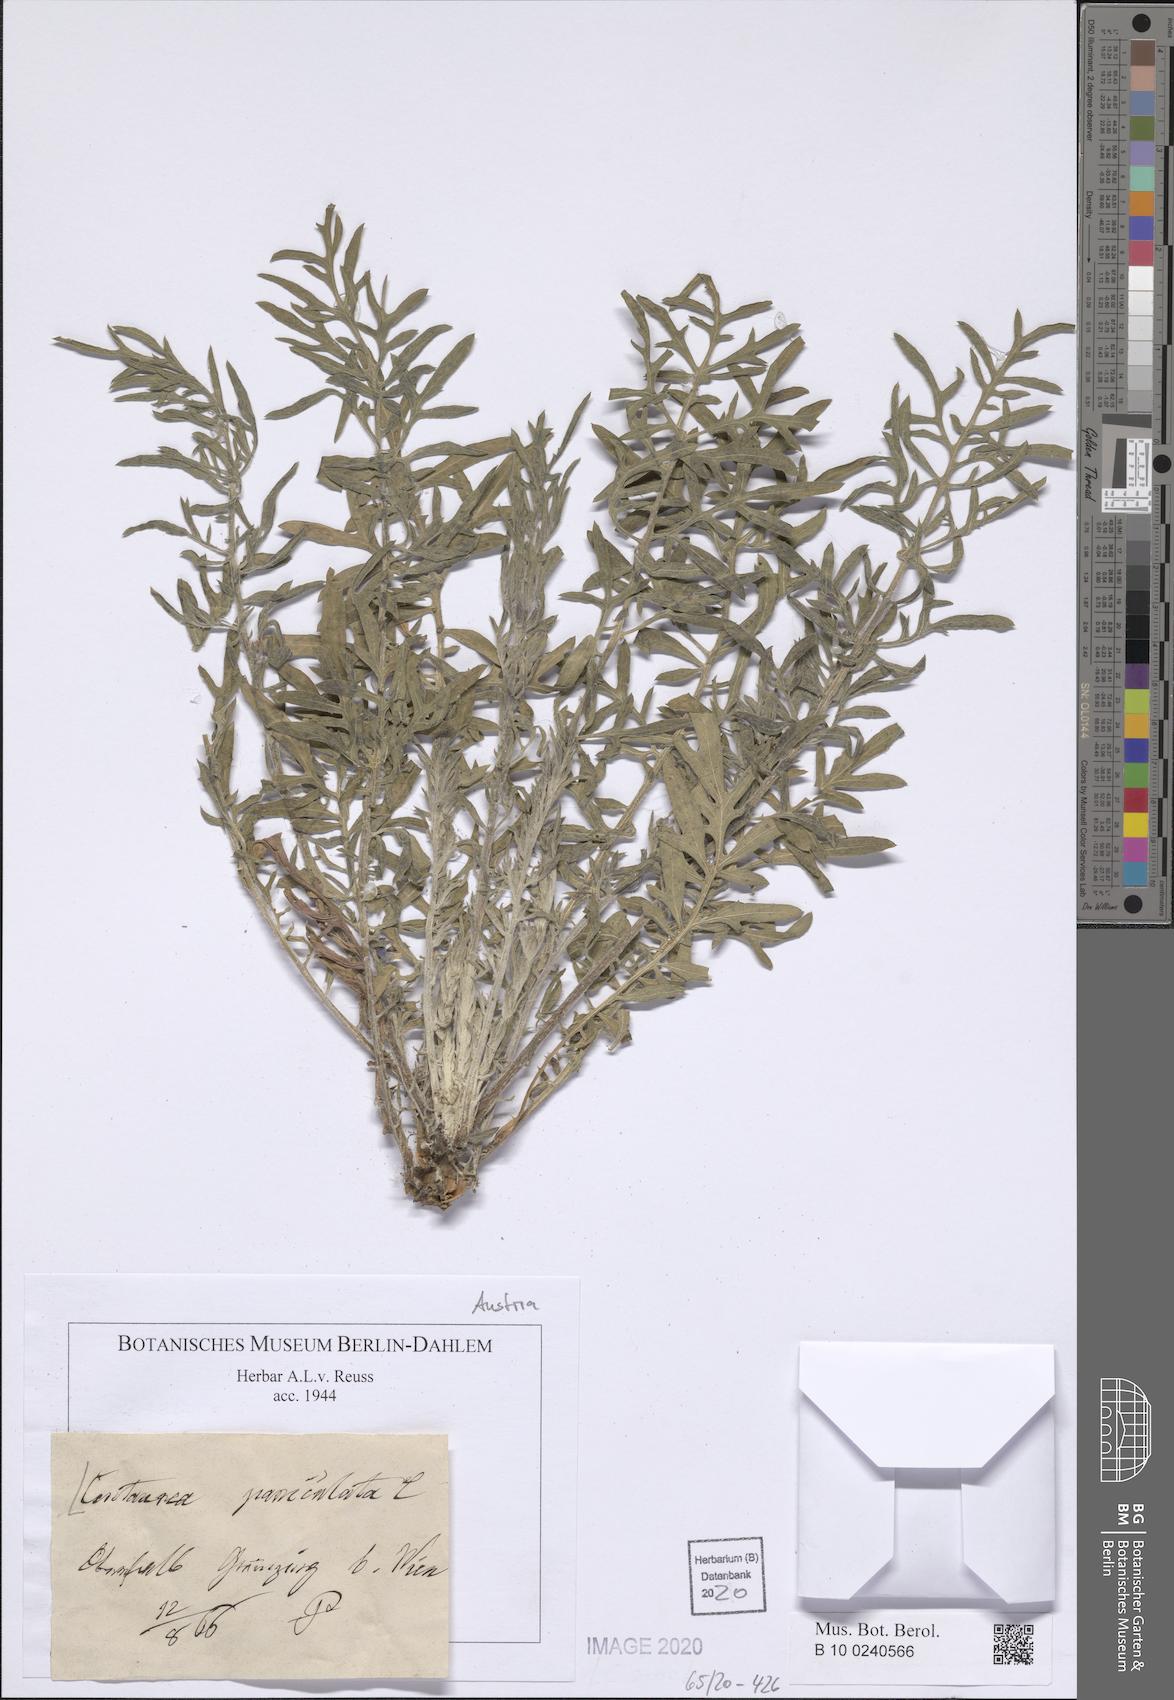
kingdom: Plantae
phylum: Tracheophyta
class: Magnoliopsida
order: Asterales
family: Asteraceae
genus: Centaurea
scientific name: Centaurea paniculata
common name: Jersey knapweed
